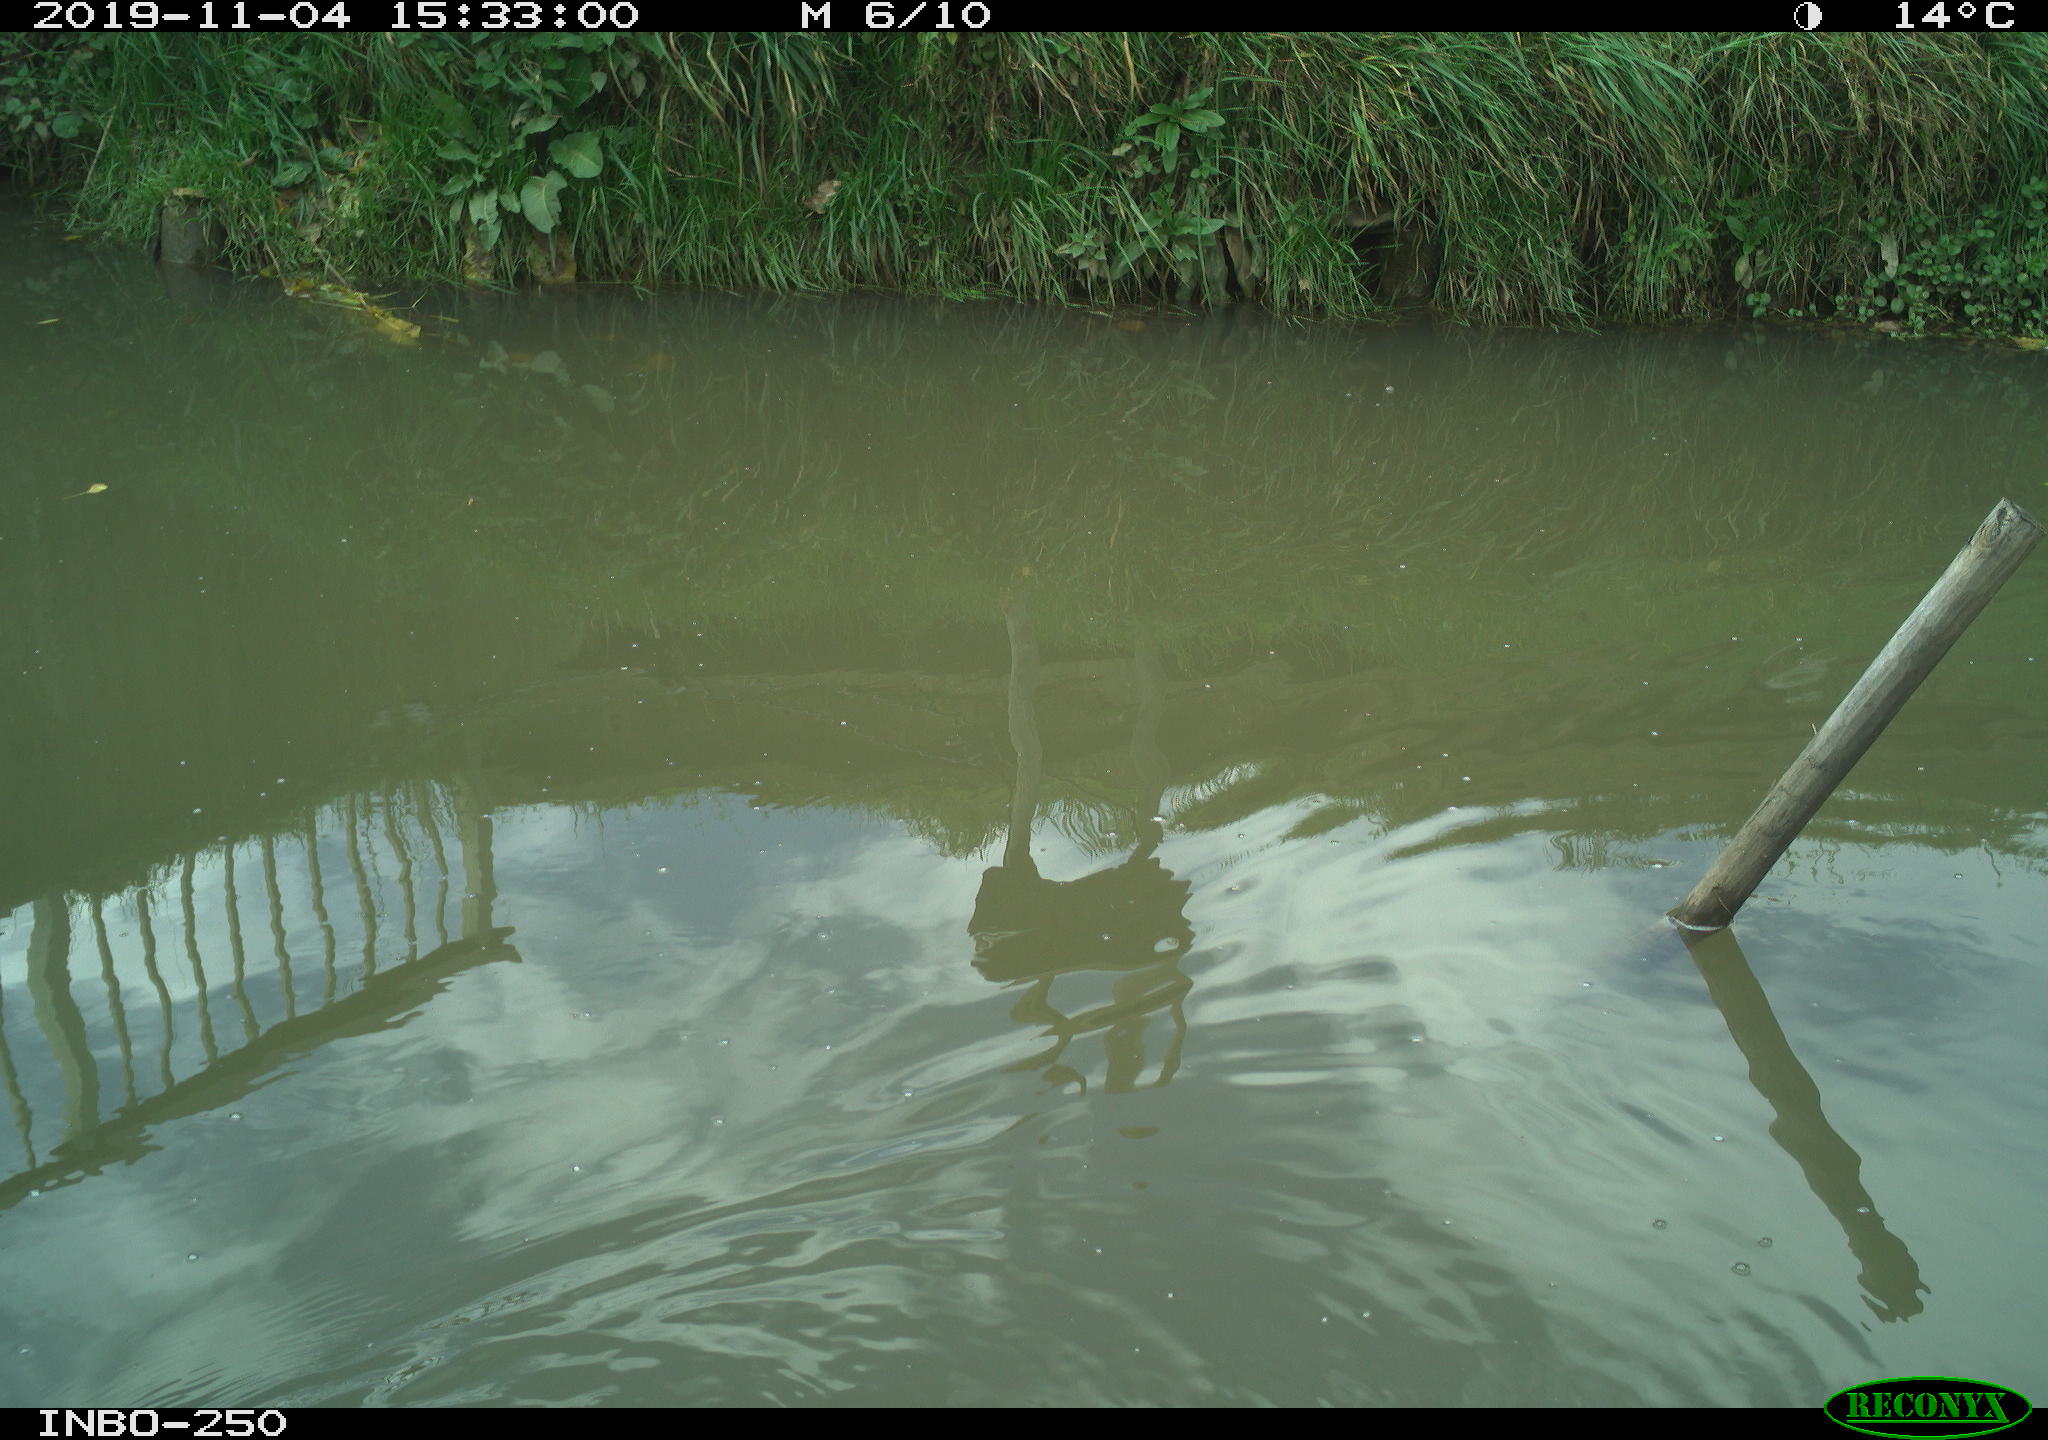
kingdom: Animalia
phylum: Chordata
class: Aves
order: Gruiformes
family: Rallidae
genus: Gallinula
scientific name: Gallinula chloropus
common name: Common moorhen
